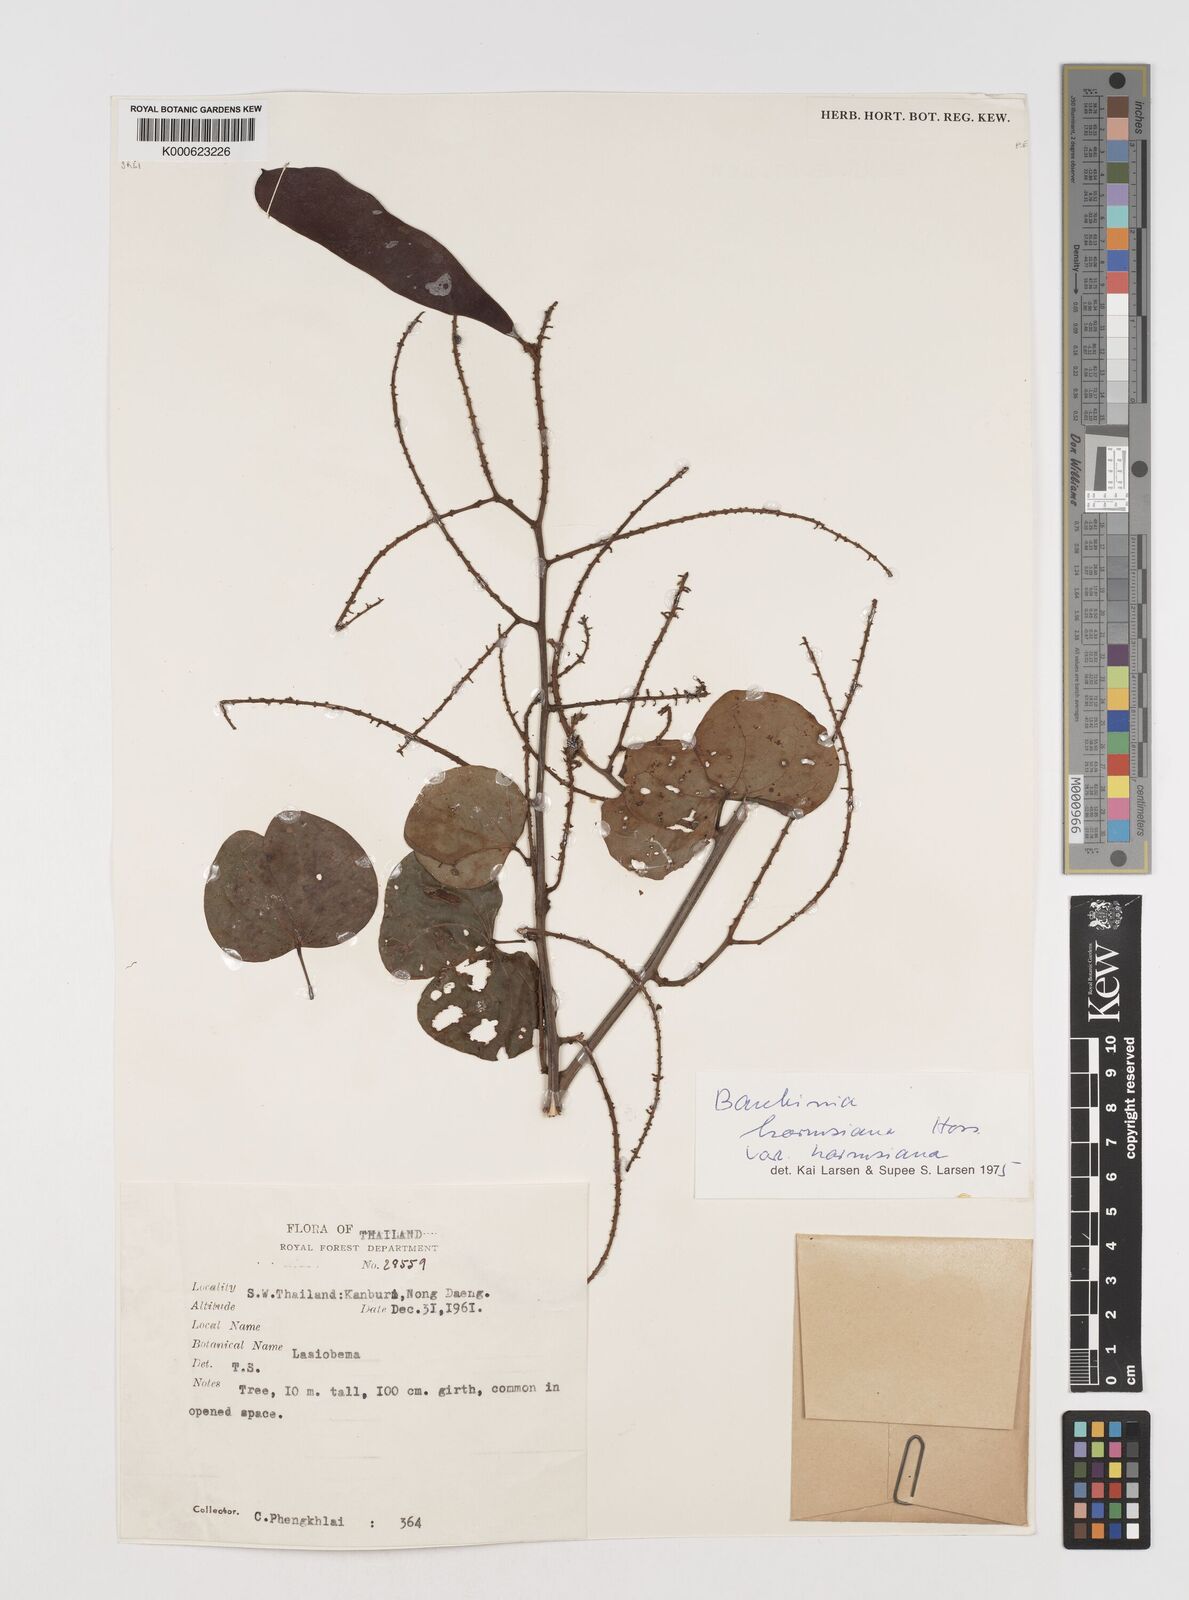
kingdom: Plantae
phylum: Tracheophyta
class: Magnoliopsida
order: Fabales
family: Fabaceae
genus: Bauhinia
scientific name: Bauhinia
